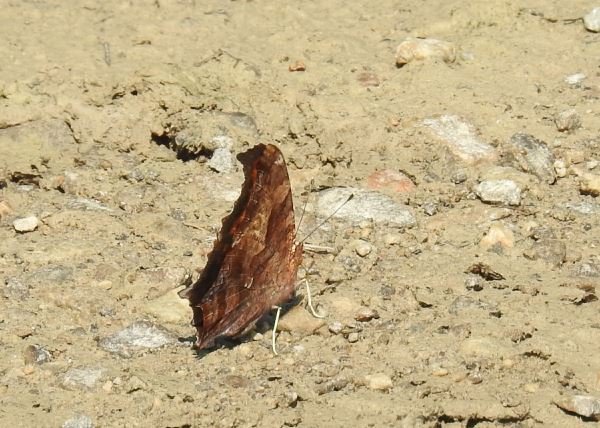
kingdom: Animalia
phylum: Arthropoda
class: Insecta
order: Lepidoptera
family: Nymphalidae
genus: Polygonia
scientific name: Polygonia interrogationis
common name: Question Mark
